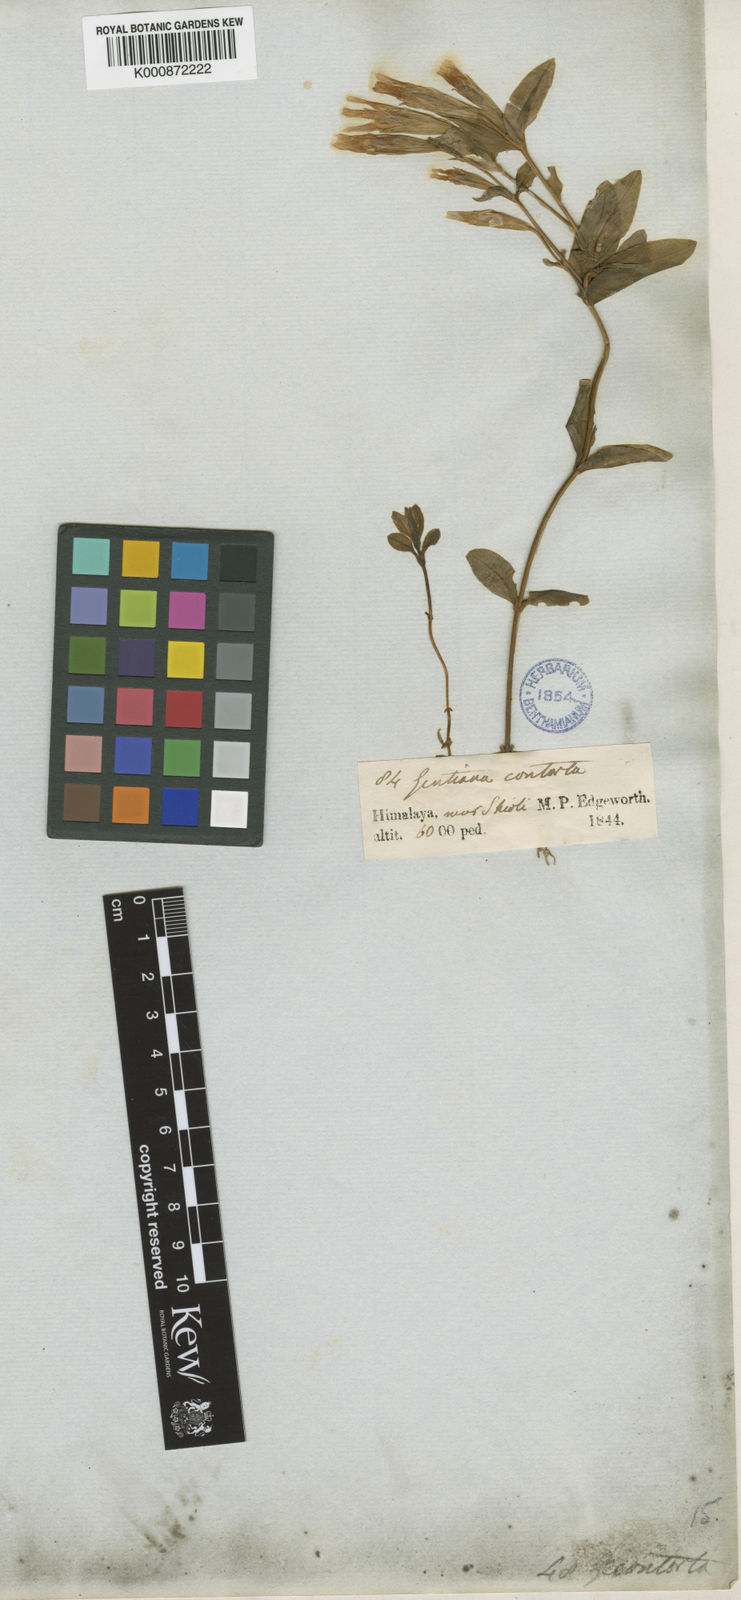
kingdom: Plantae
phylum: Tracheophyta
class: Magnoliopsida
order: Gentianales
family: Gentianaceae
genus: Gentiana
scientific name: Gentiana
